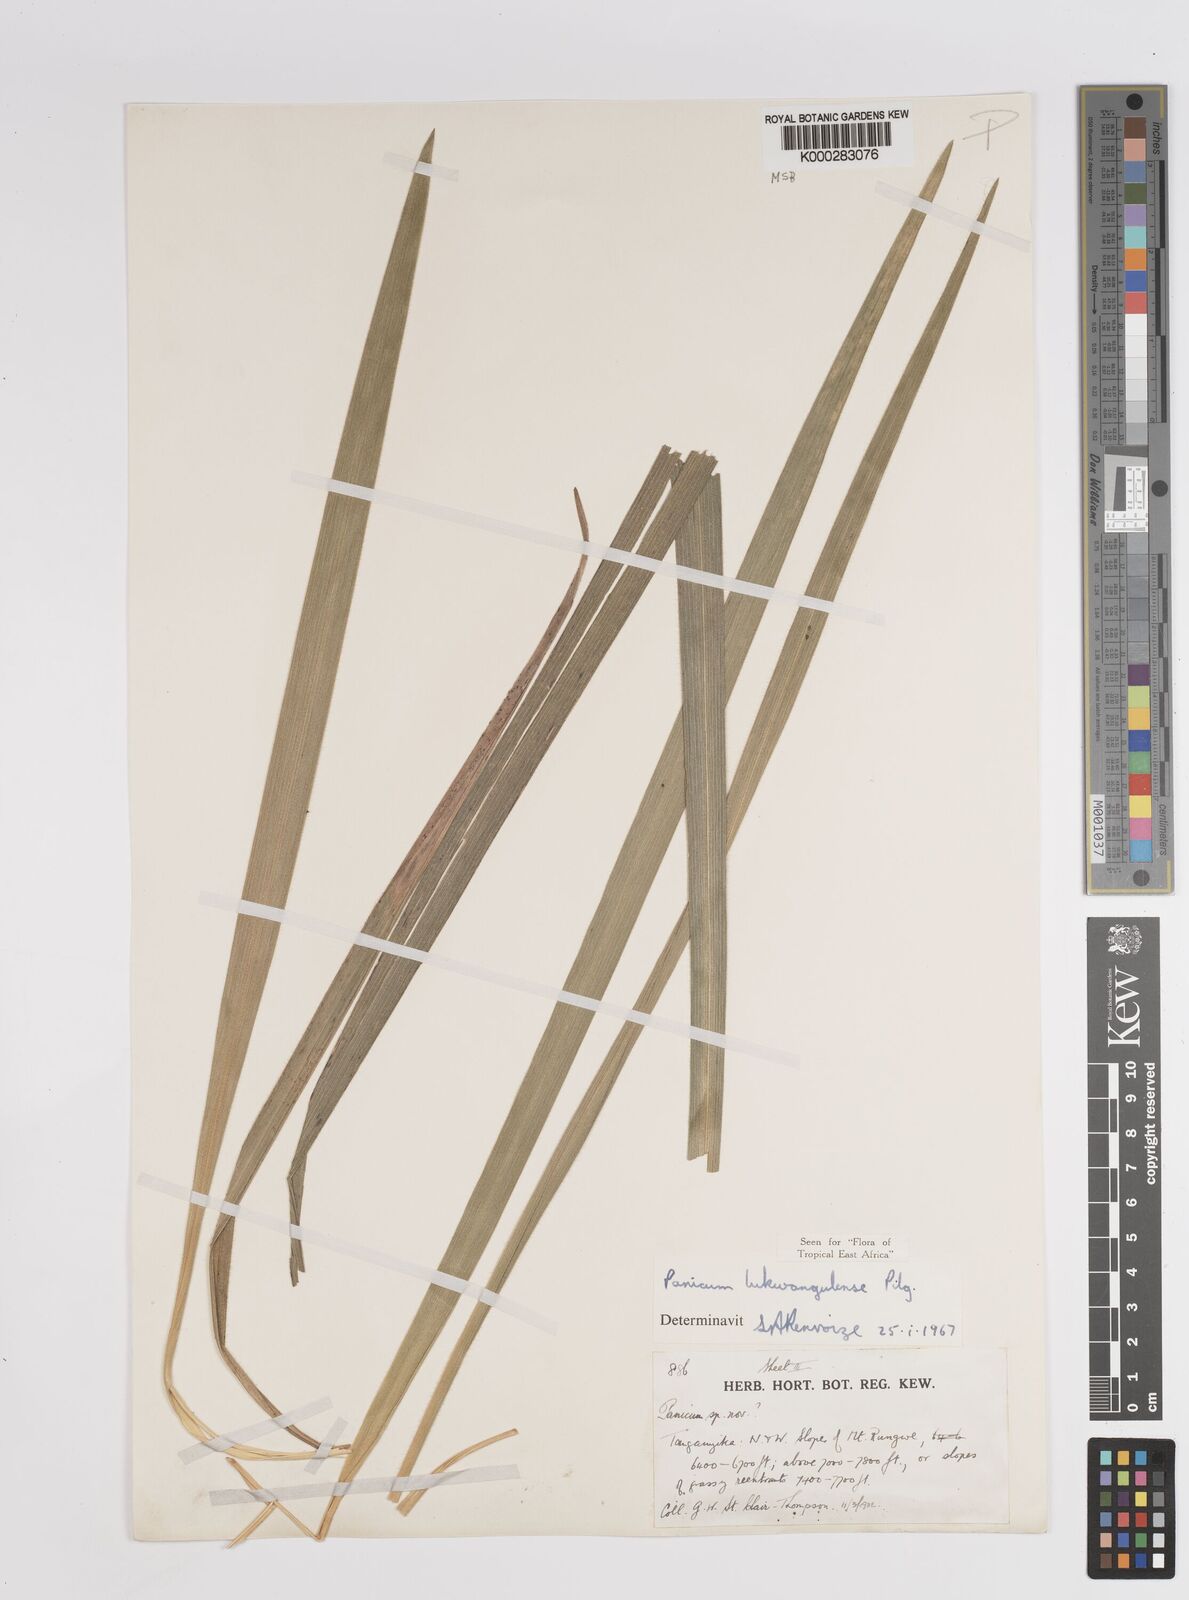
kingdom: Plantae
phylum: Tracheophyta
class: Liliopsida
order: Poales
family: Poaceae
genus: Adenochloa
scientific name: Adenochloa lukwangulense
